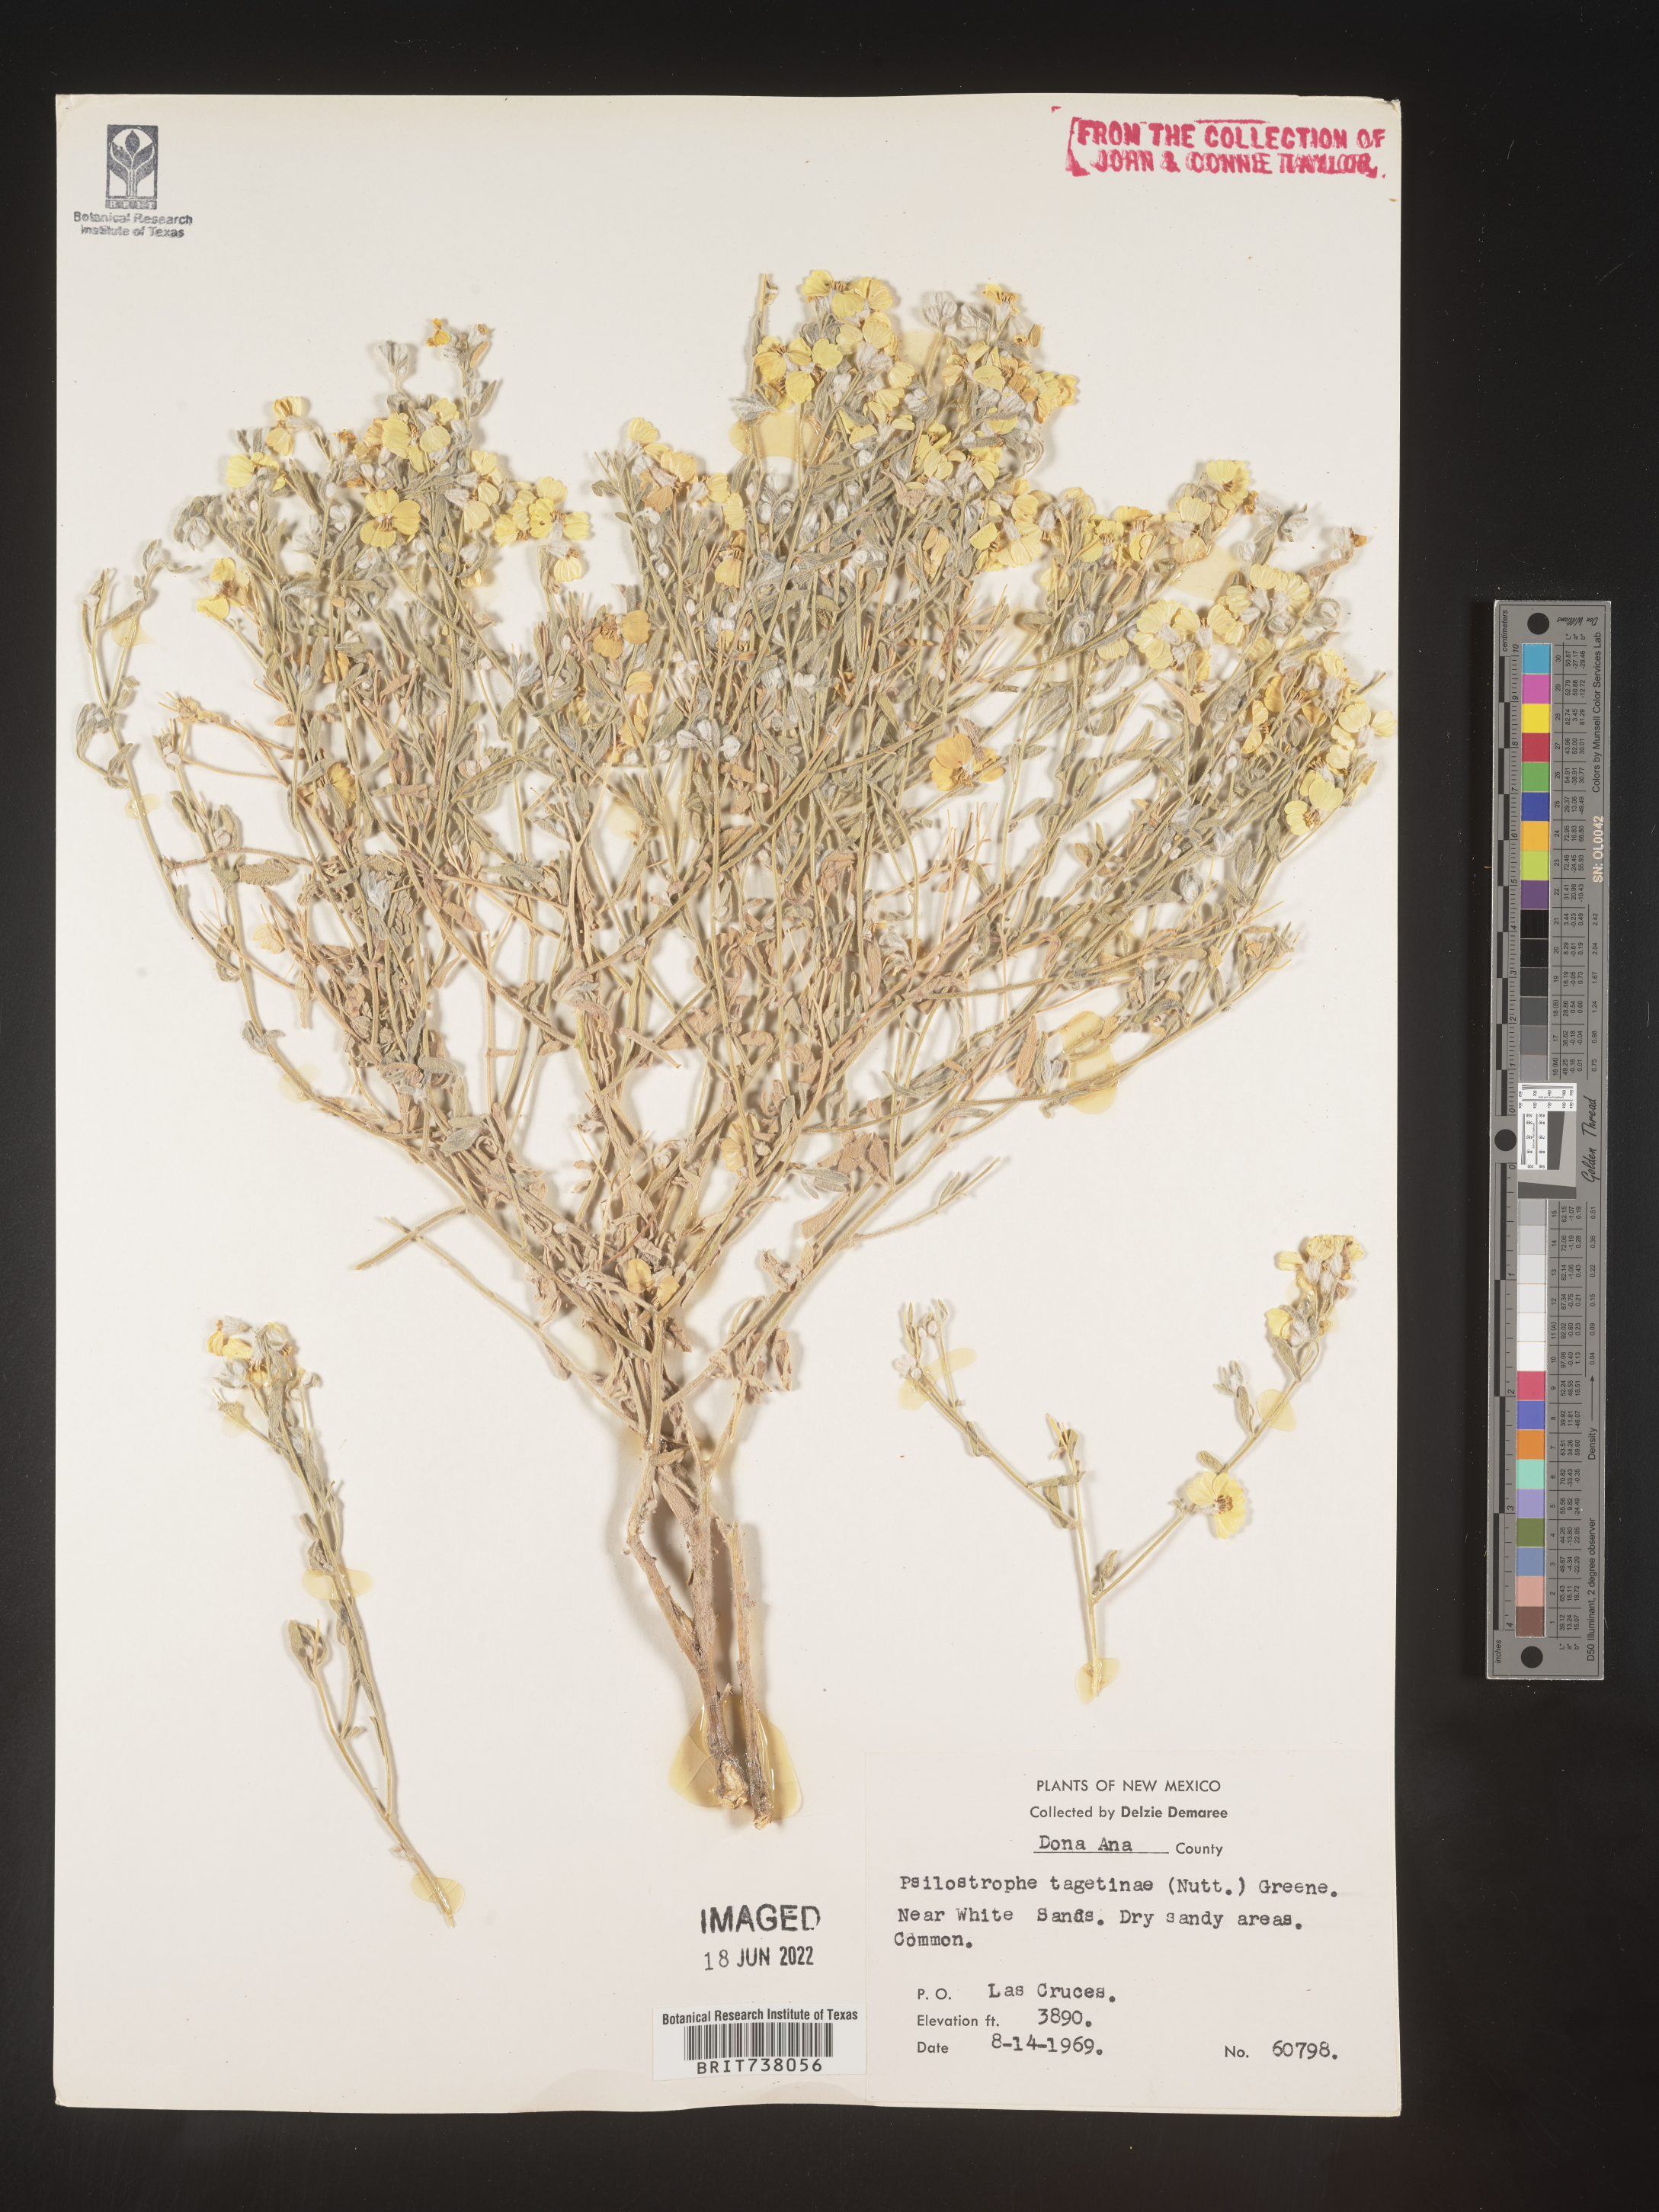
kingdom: Plantae
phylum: Tracheophyta
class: Magnoliopsida
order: Asterales
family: Asteraceae
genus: Psilostrophe
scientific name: Psilostrophe tagetina
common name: Marigold paper-flower
